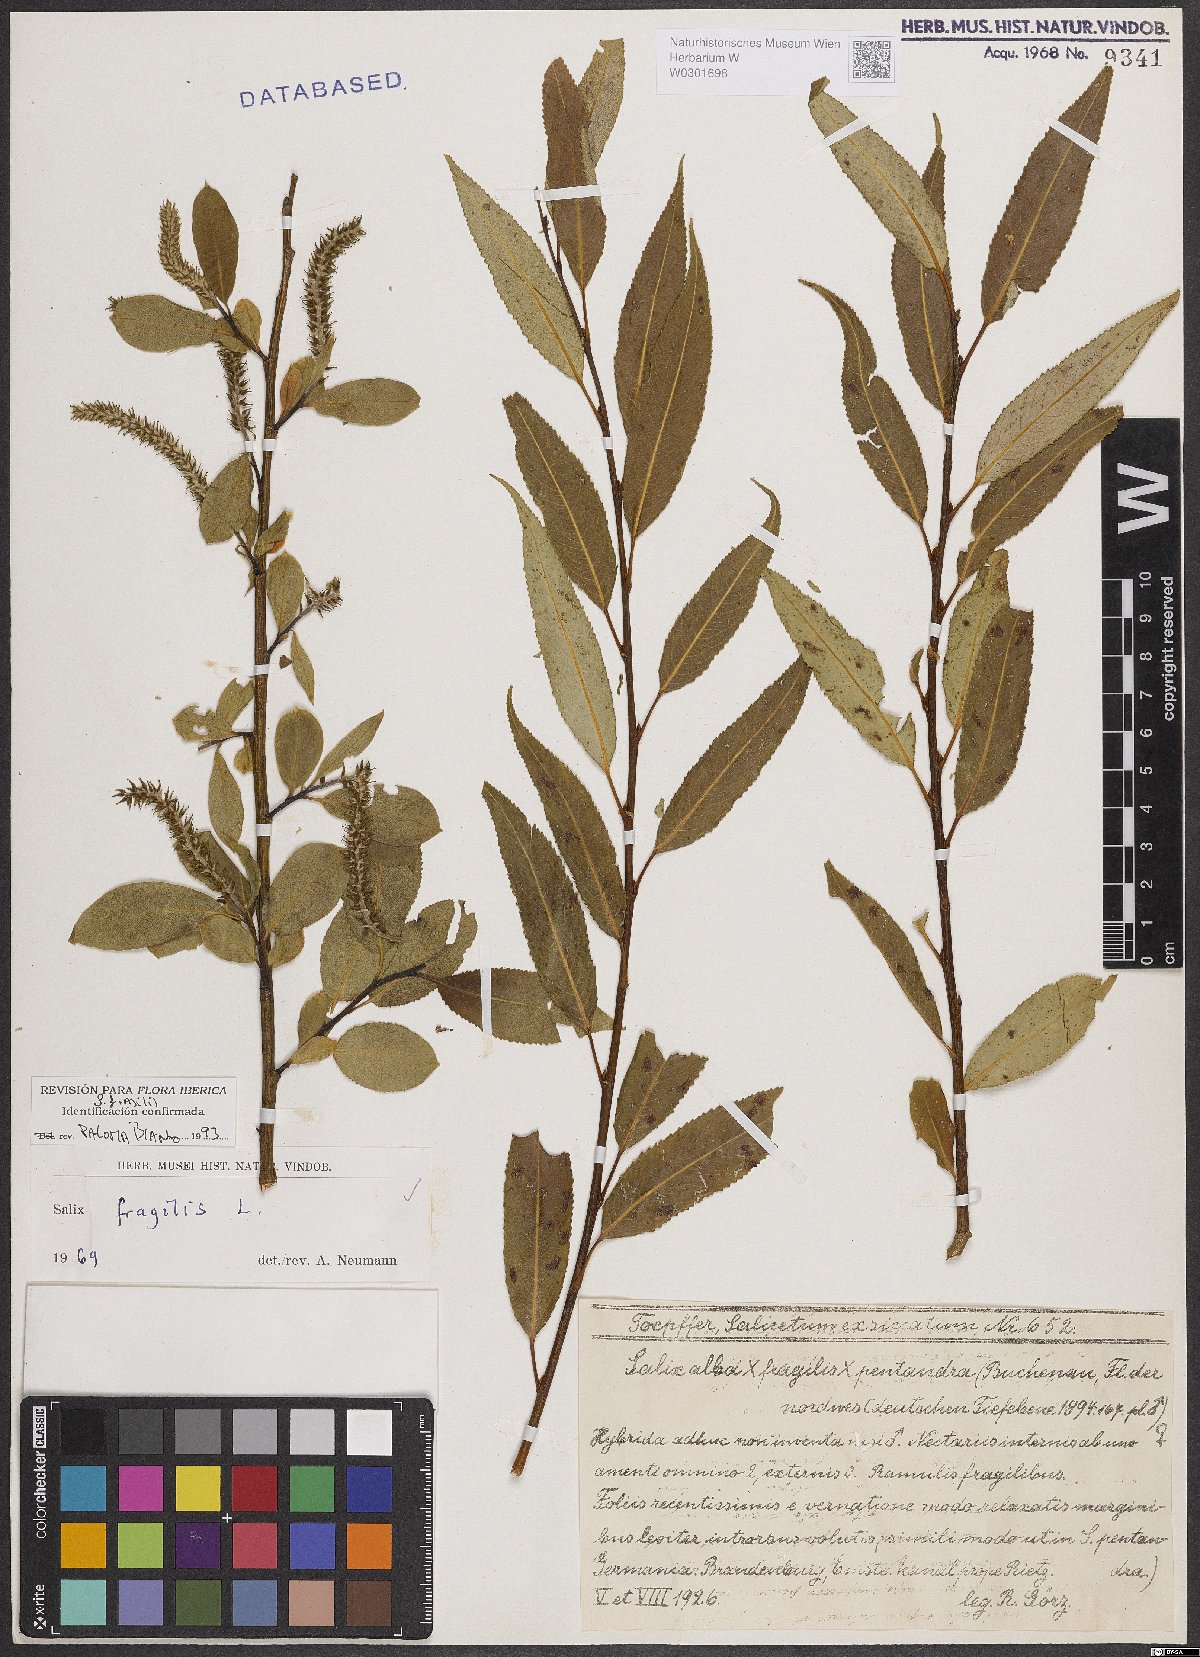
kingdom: Plantae
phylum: Tracheophyta
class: Magnoliopsida
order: Malpighiales
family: Salicaceae
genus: Salix
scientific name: Salix fragilis
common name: Crack willow
